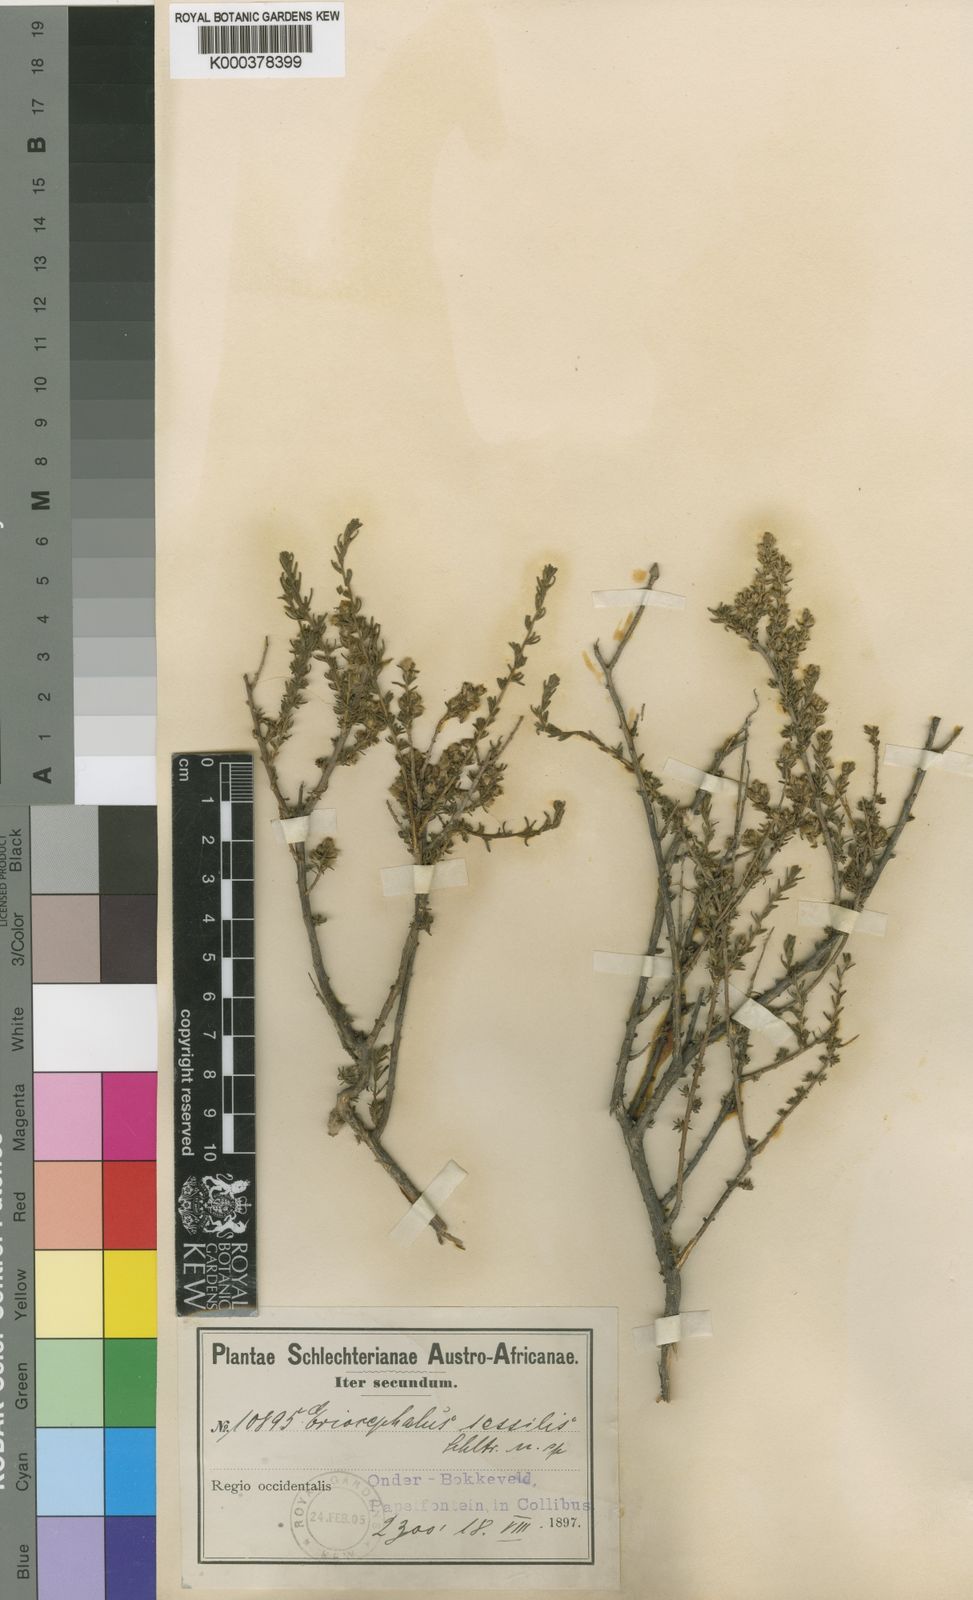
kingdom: Plantae
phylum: Tracheophyta
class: Magnoliopsida
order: Asterales
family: Asteraceae
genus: Eriocephalus
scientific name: Eriocephalus
